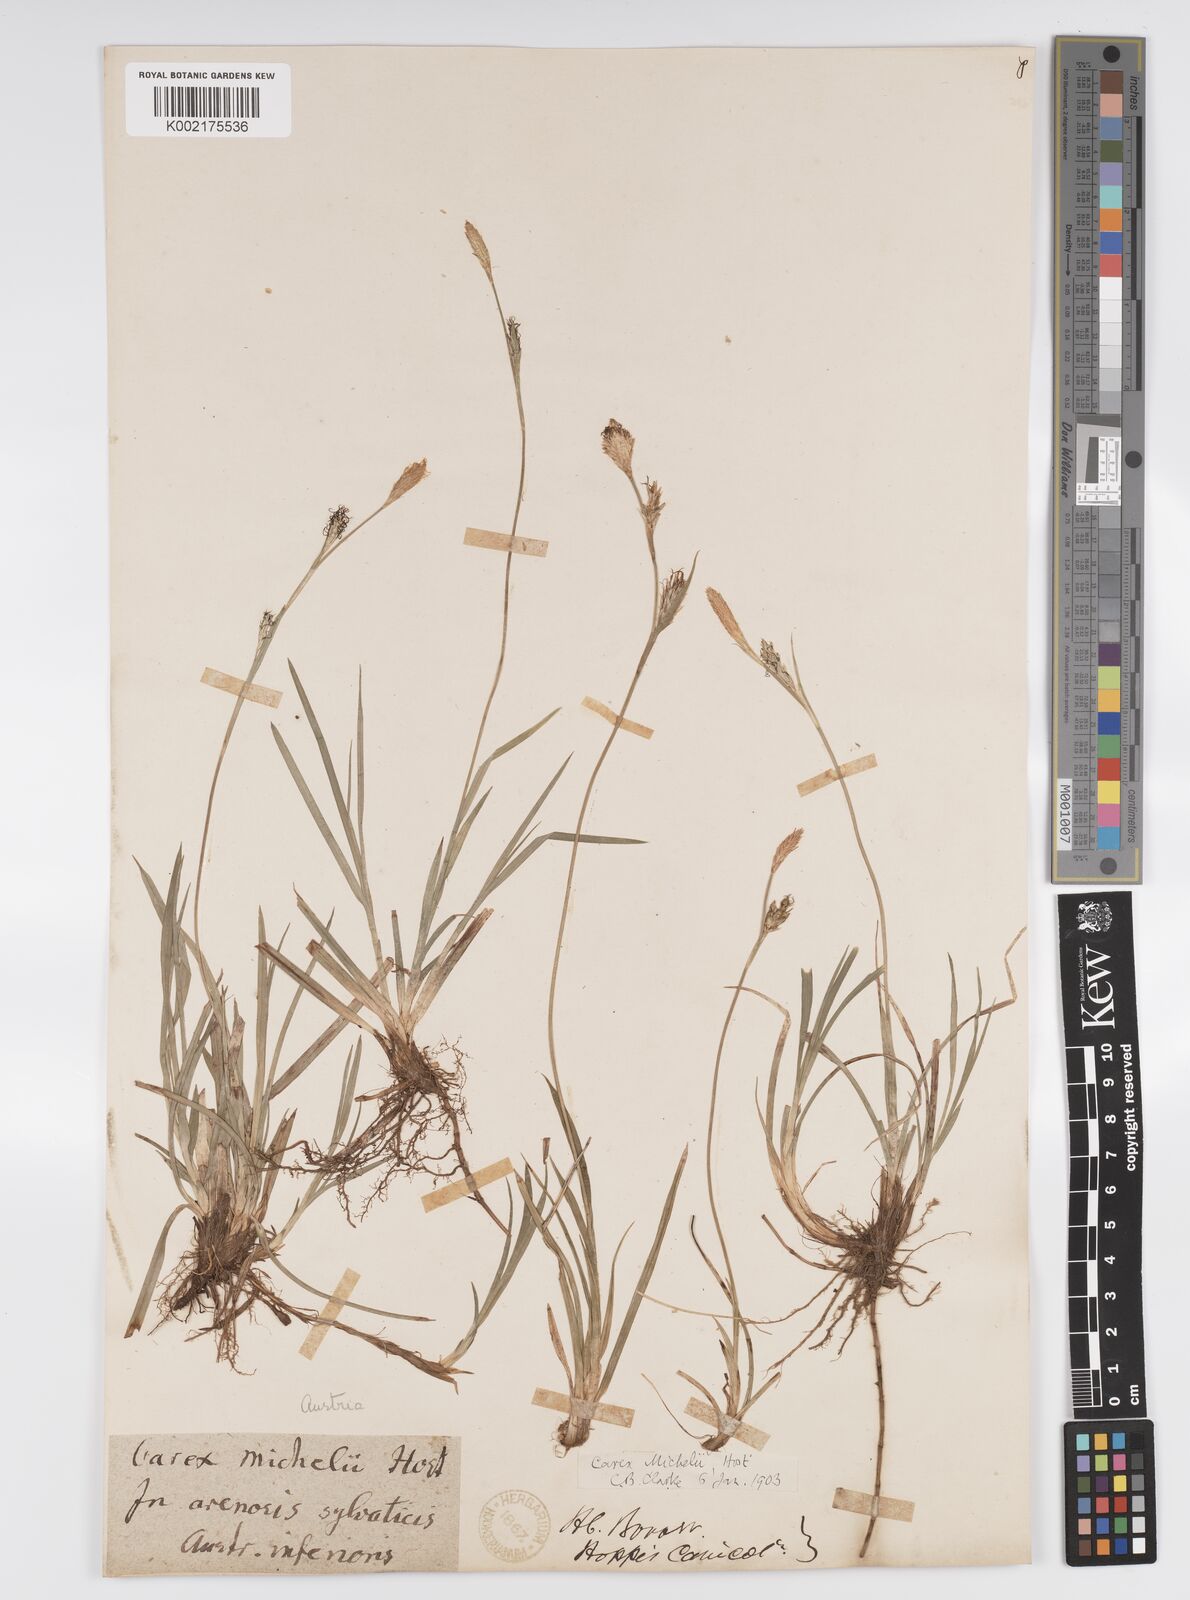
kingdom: Plantae
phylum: Tracheophyta
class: Liliopsida
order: Poales
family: Cyperaceae
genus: Carex
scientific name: Carex michelii
